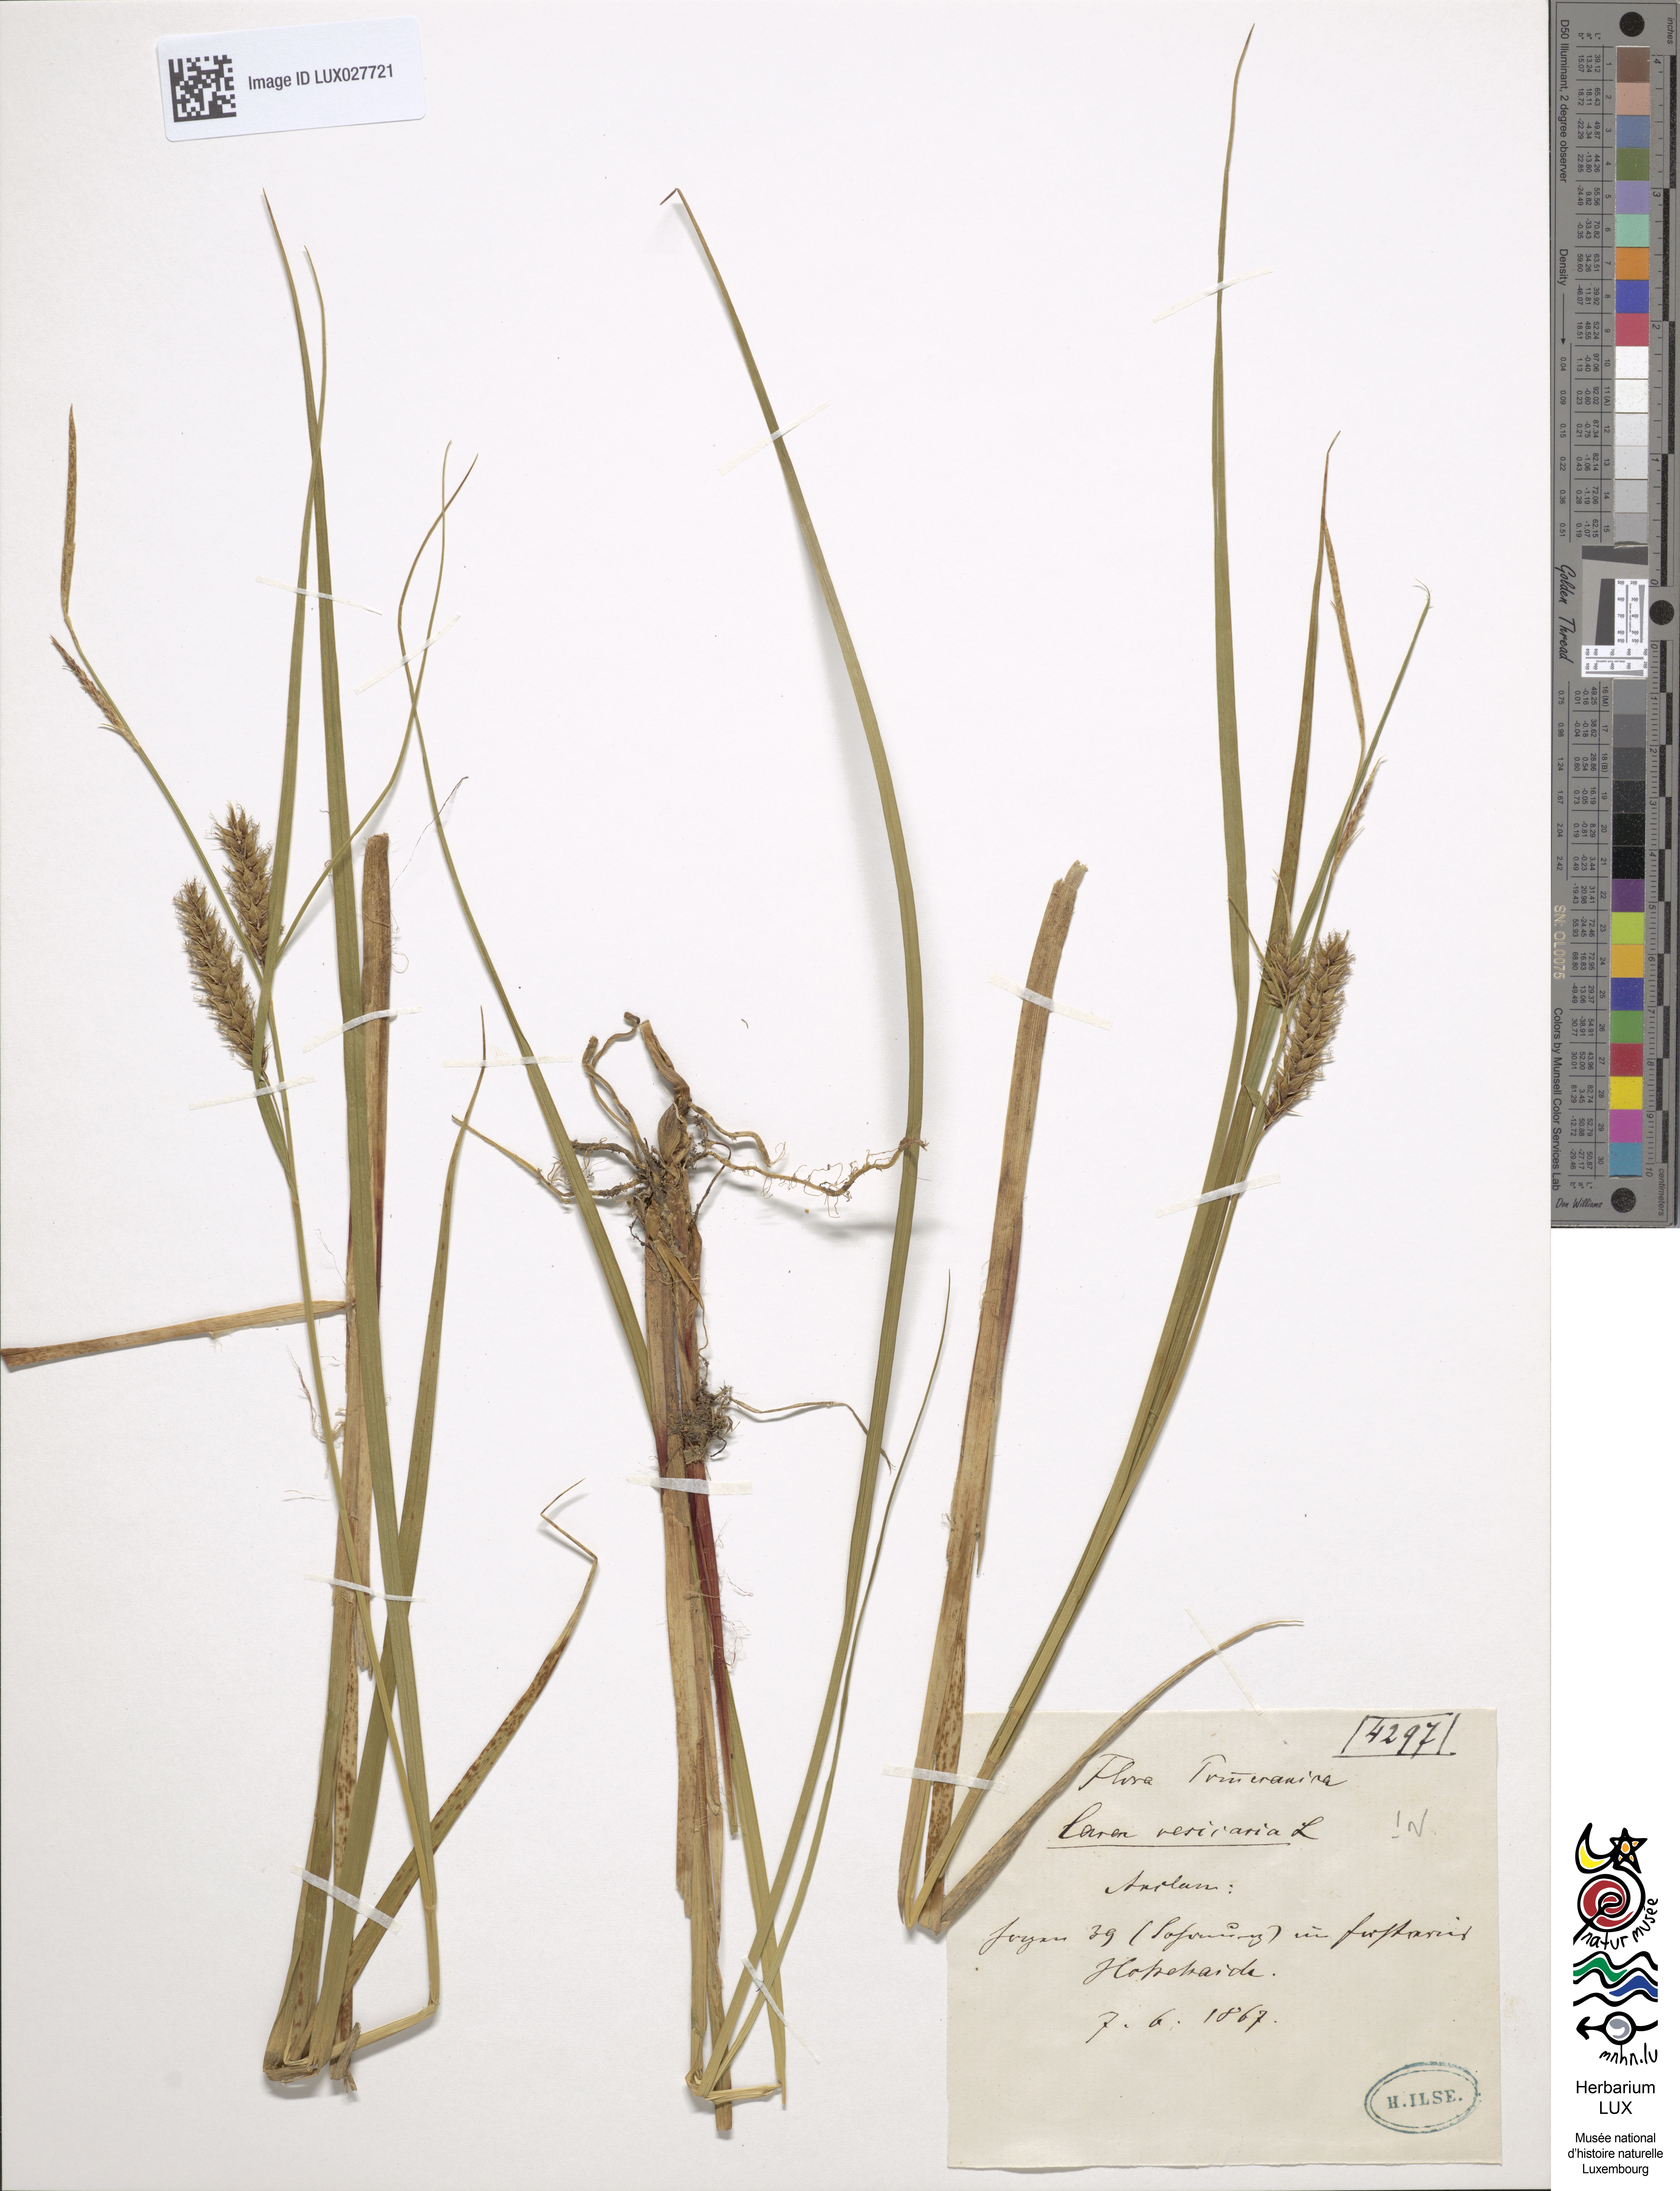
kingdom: Plantae
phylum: Tracheophyta
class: Liliopsida
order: Poales
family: Cyperaceae
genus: Carex
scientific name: Carex vesicaria
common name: Bladder-sedge
